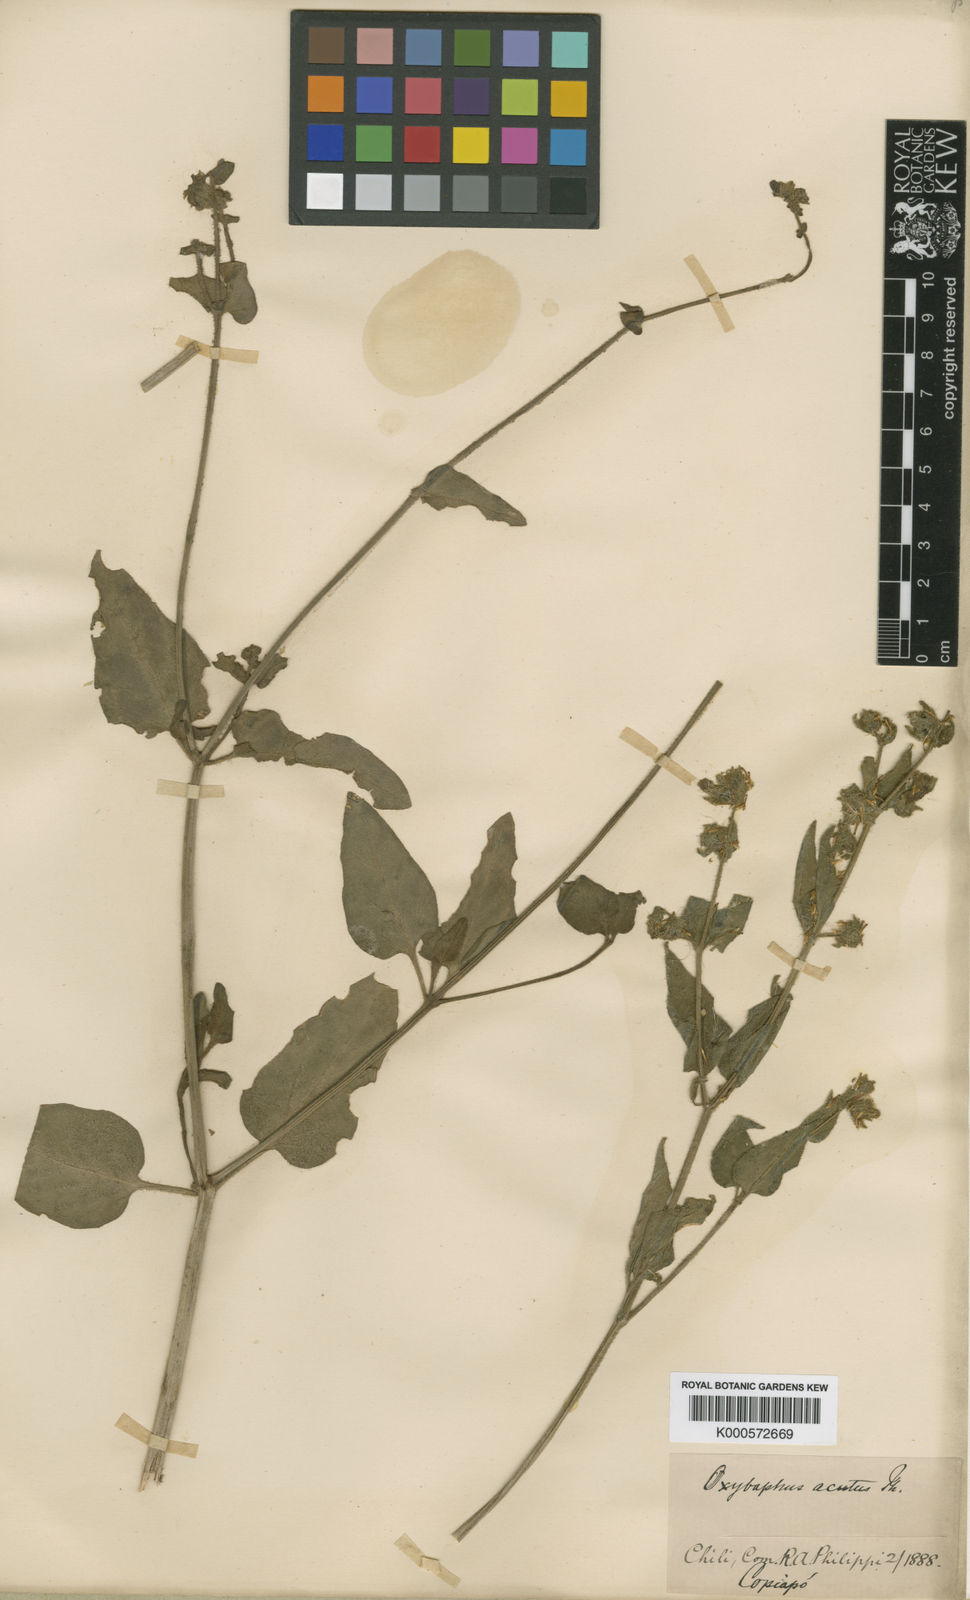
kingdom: Plantae
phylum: Tracheophyta
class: Magnoliopsida
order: Caryophyllales
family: Nyctaginaceae
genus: Mirabilis
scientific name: Mirabilis acuta
